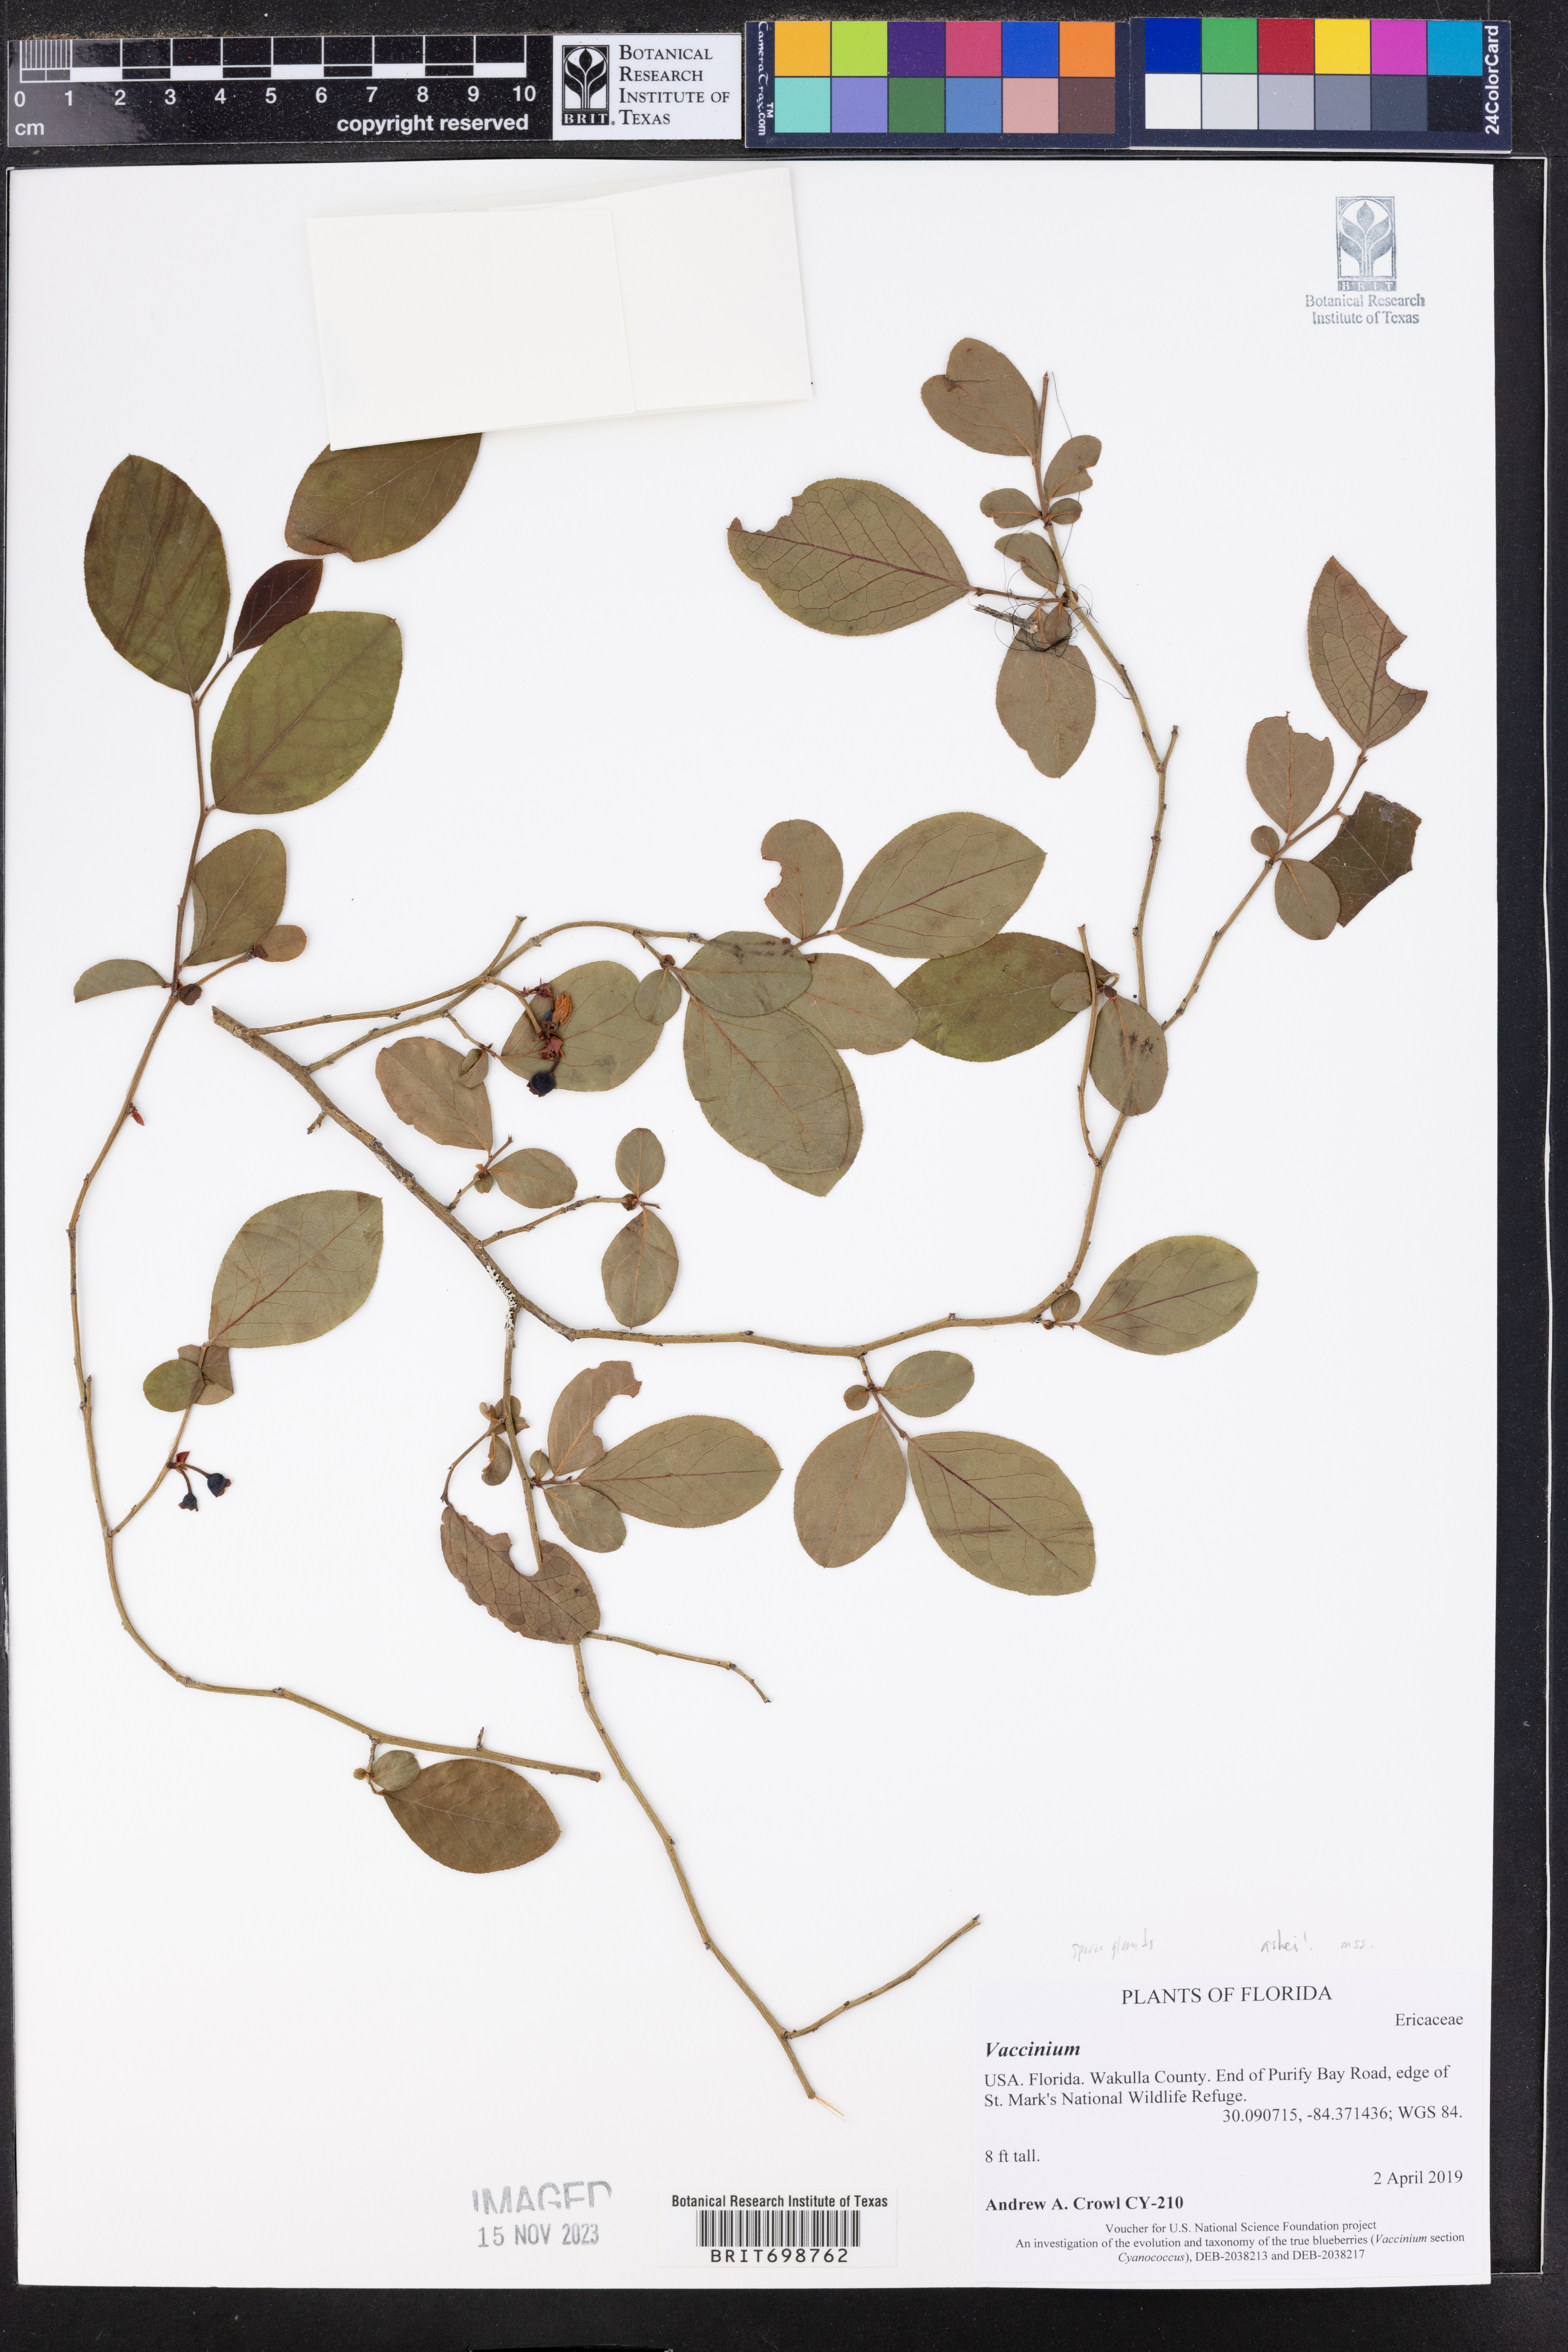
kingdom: Plantae
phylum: Tracheophyta
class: Magnoliopsida
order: Ericales
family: Ericaceae
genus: Vaccinium
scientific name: Vaccinium
